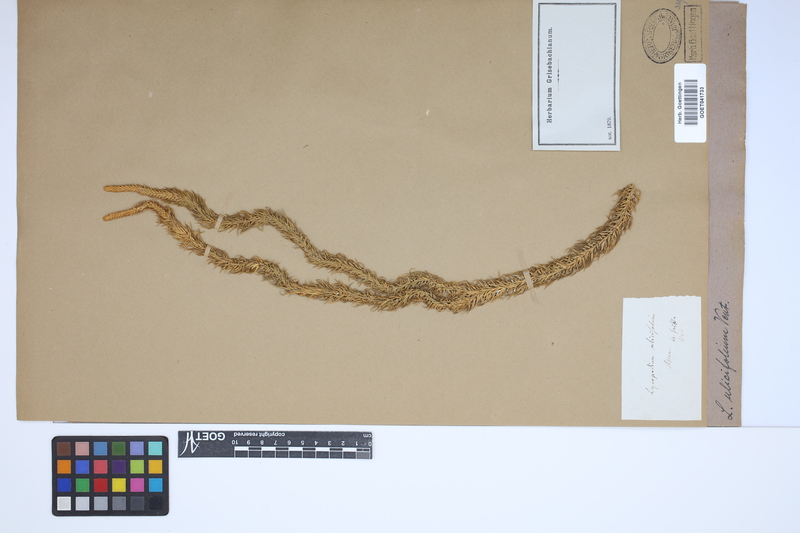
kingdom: Plantae
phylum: Tracheophyta
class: Lycopodiopsida
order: Lycopodiales
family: Lycopodiaceae
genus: Phlegmariurus
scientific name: Phlegmariurus squarrosus
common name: Rock tassel-fern
